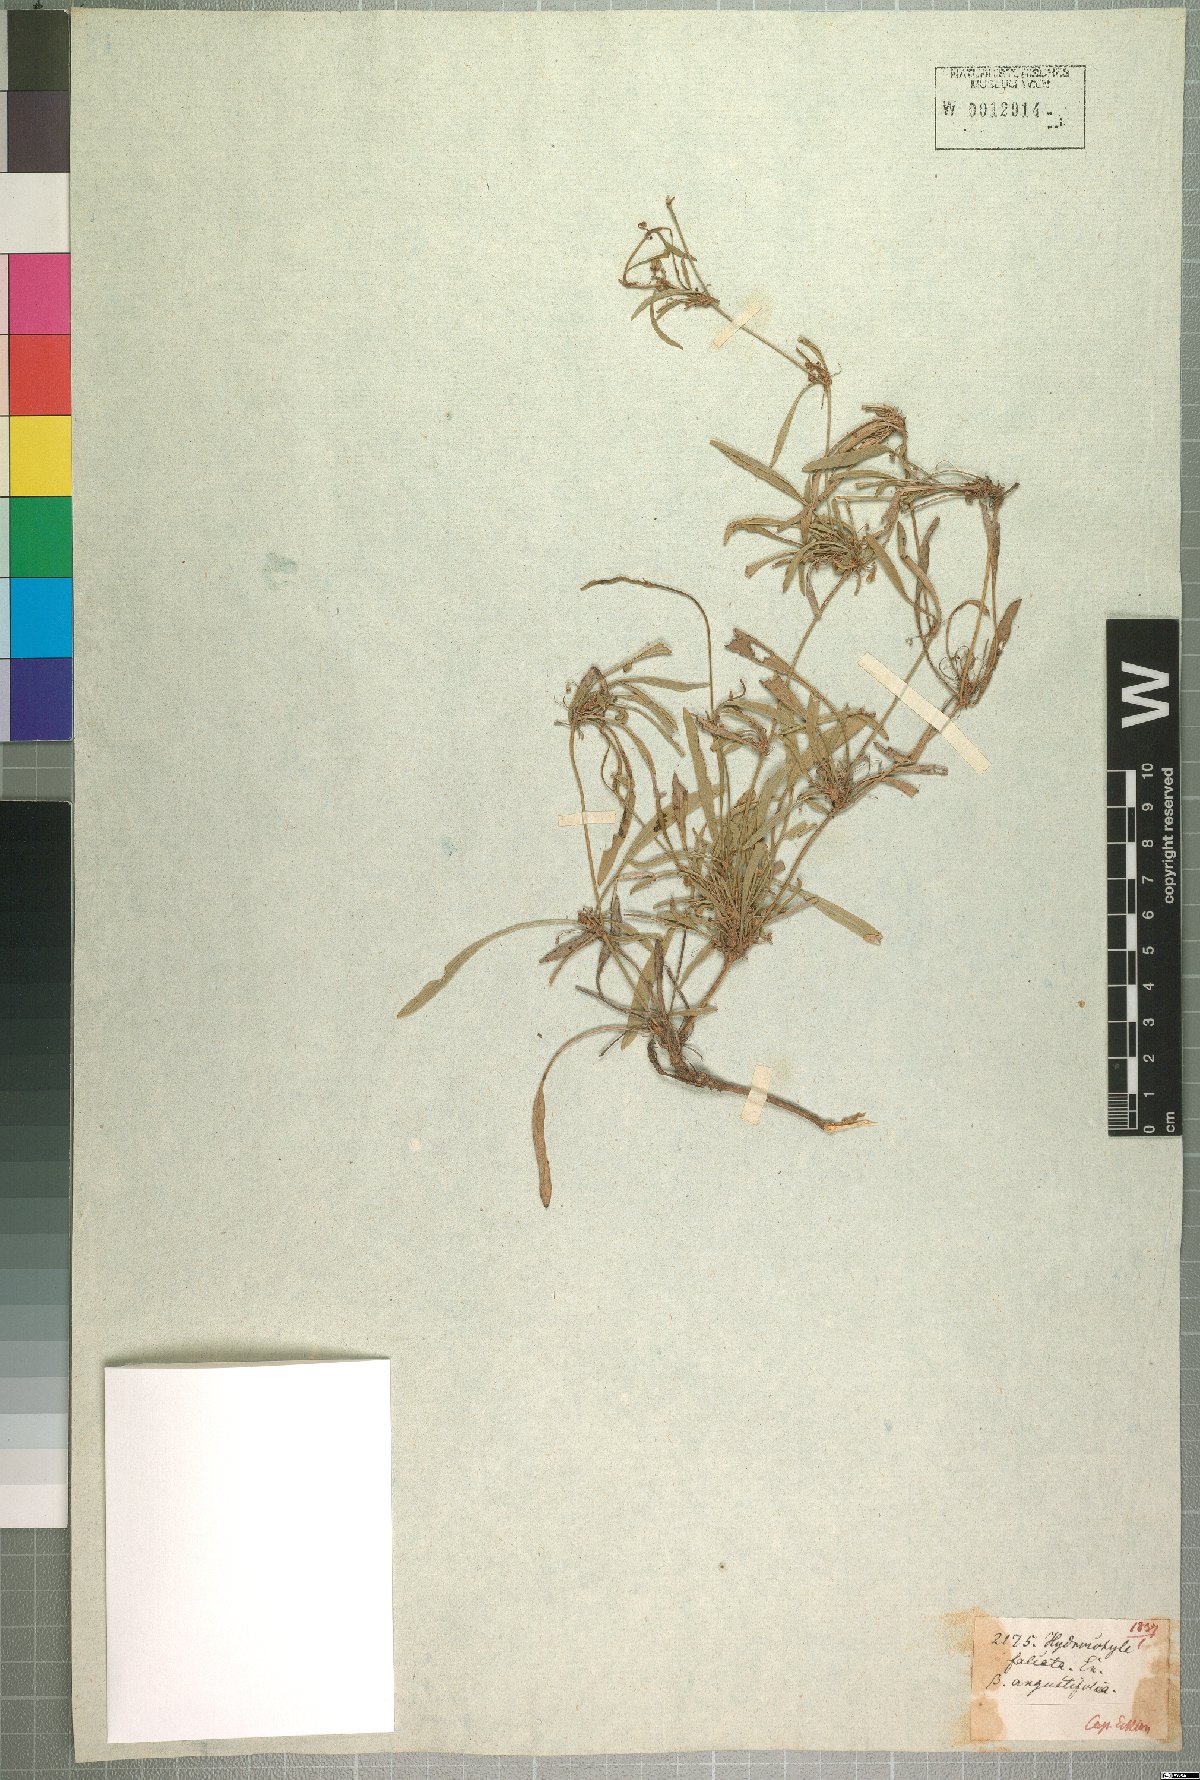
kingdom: Plantae
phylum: Tracheophyta
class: Magnoliopsida
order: Apiales
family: Apiaceae
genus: Centella
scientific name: Centella glabrata
